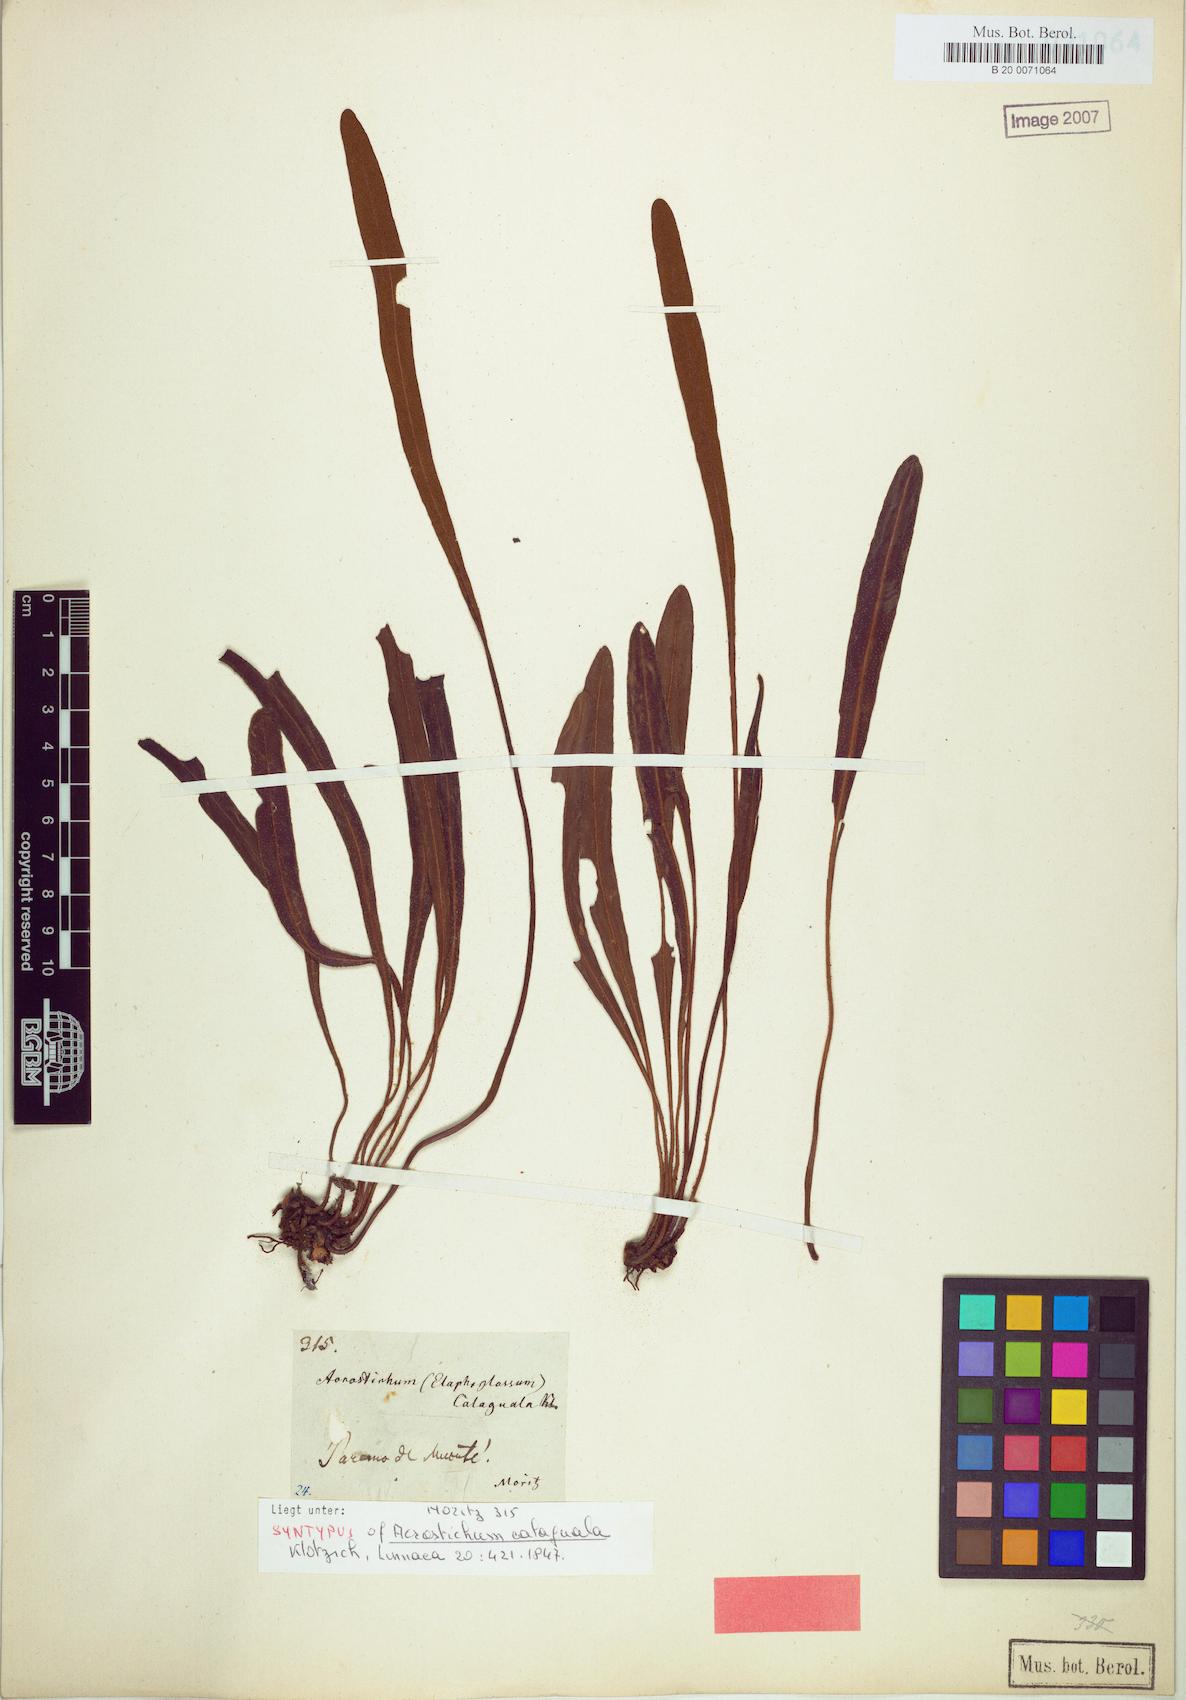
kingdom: Plantae
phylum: Tracheophyta
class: Polypodiopsida
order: Polypodiales
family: Dryopteridaceae
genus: Elaphoglossum
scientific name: Elaphoglossum gayanum
